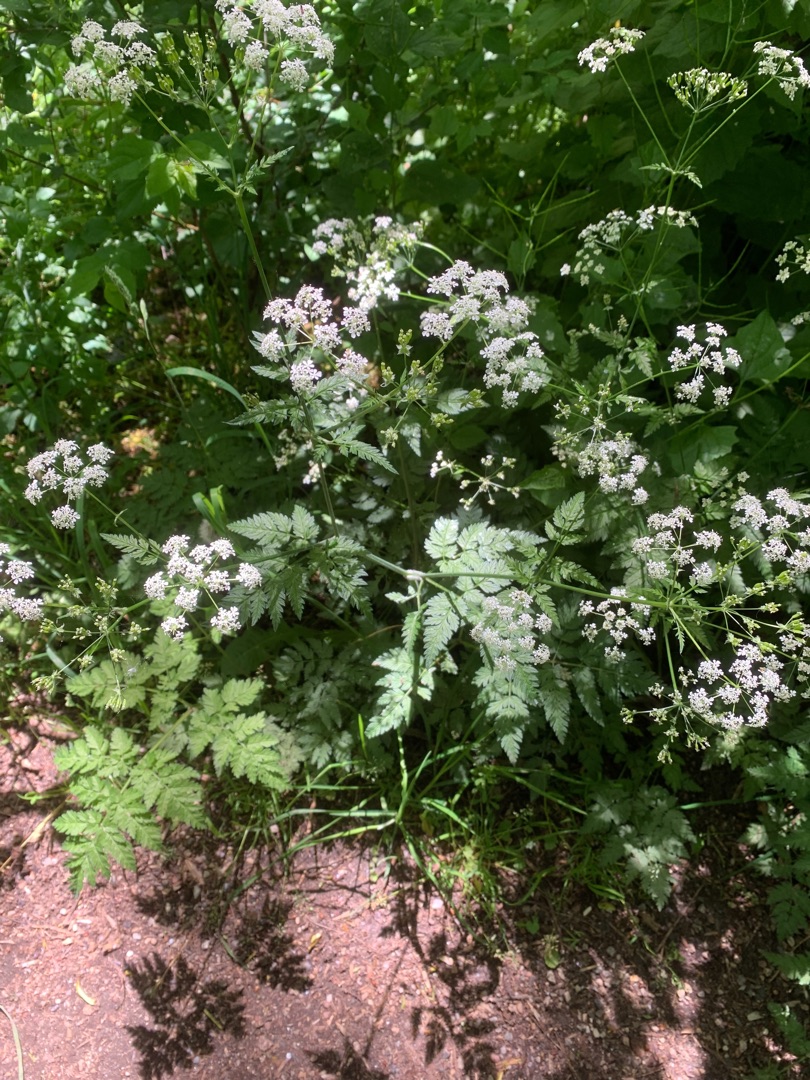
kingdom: Plantae
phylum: Tracheophyta
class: Magnoliopsida
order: Apiales
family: Apiaceae
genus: Anthriscus
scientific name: Anthriscus sylvestris
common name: Vild kørvel
